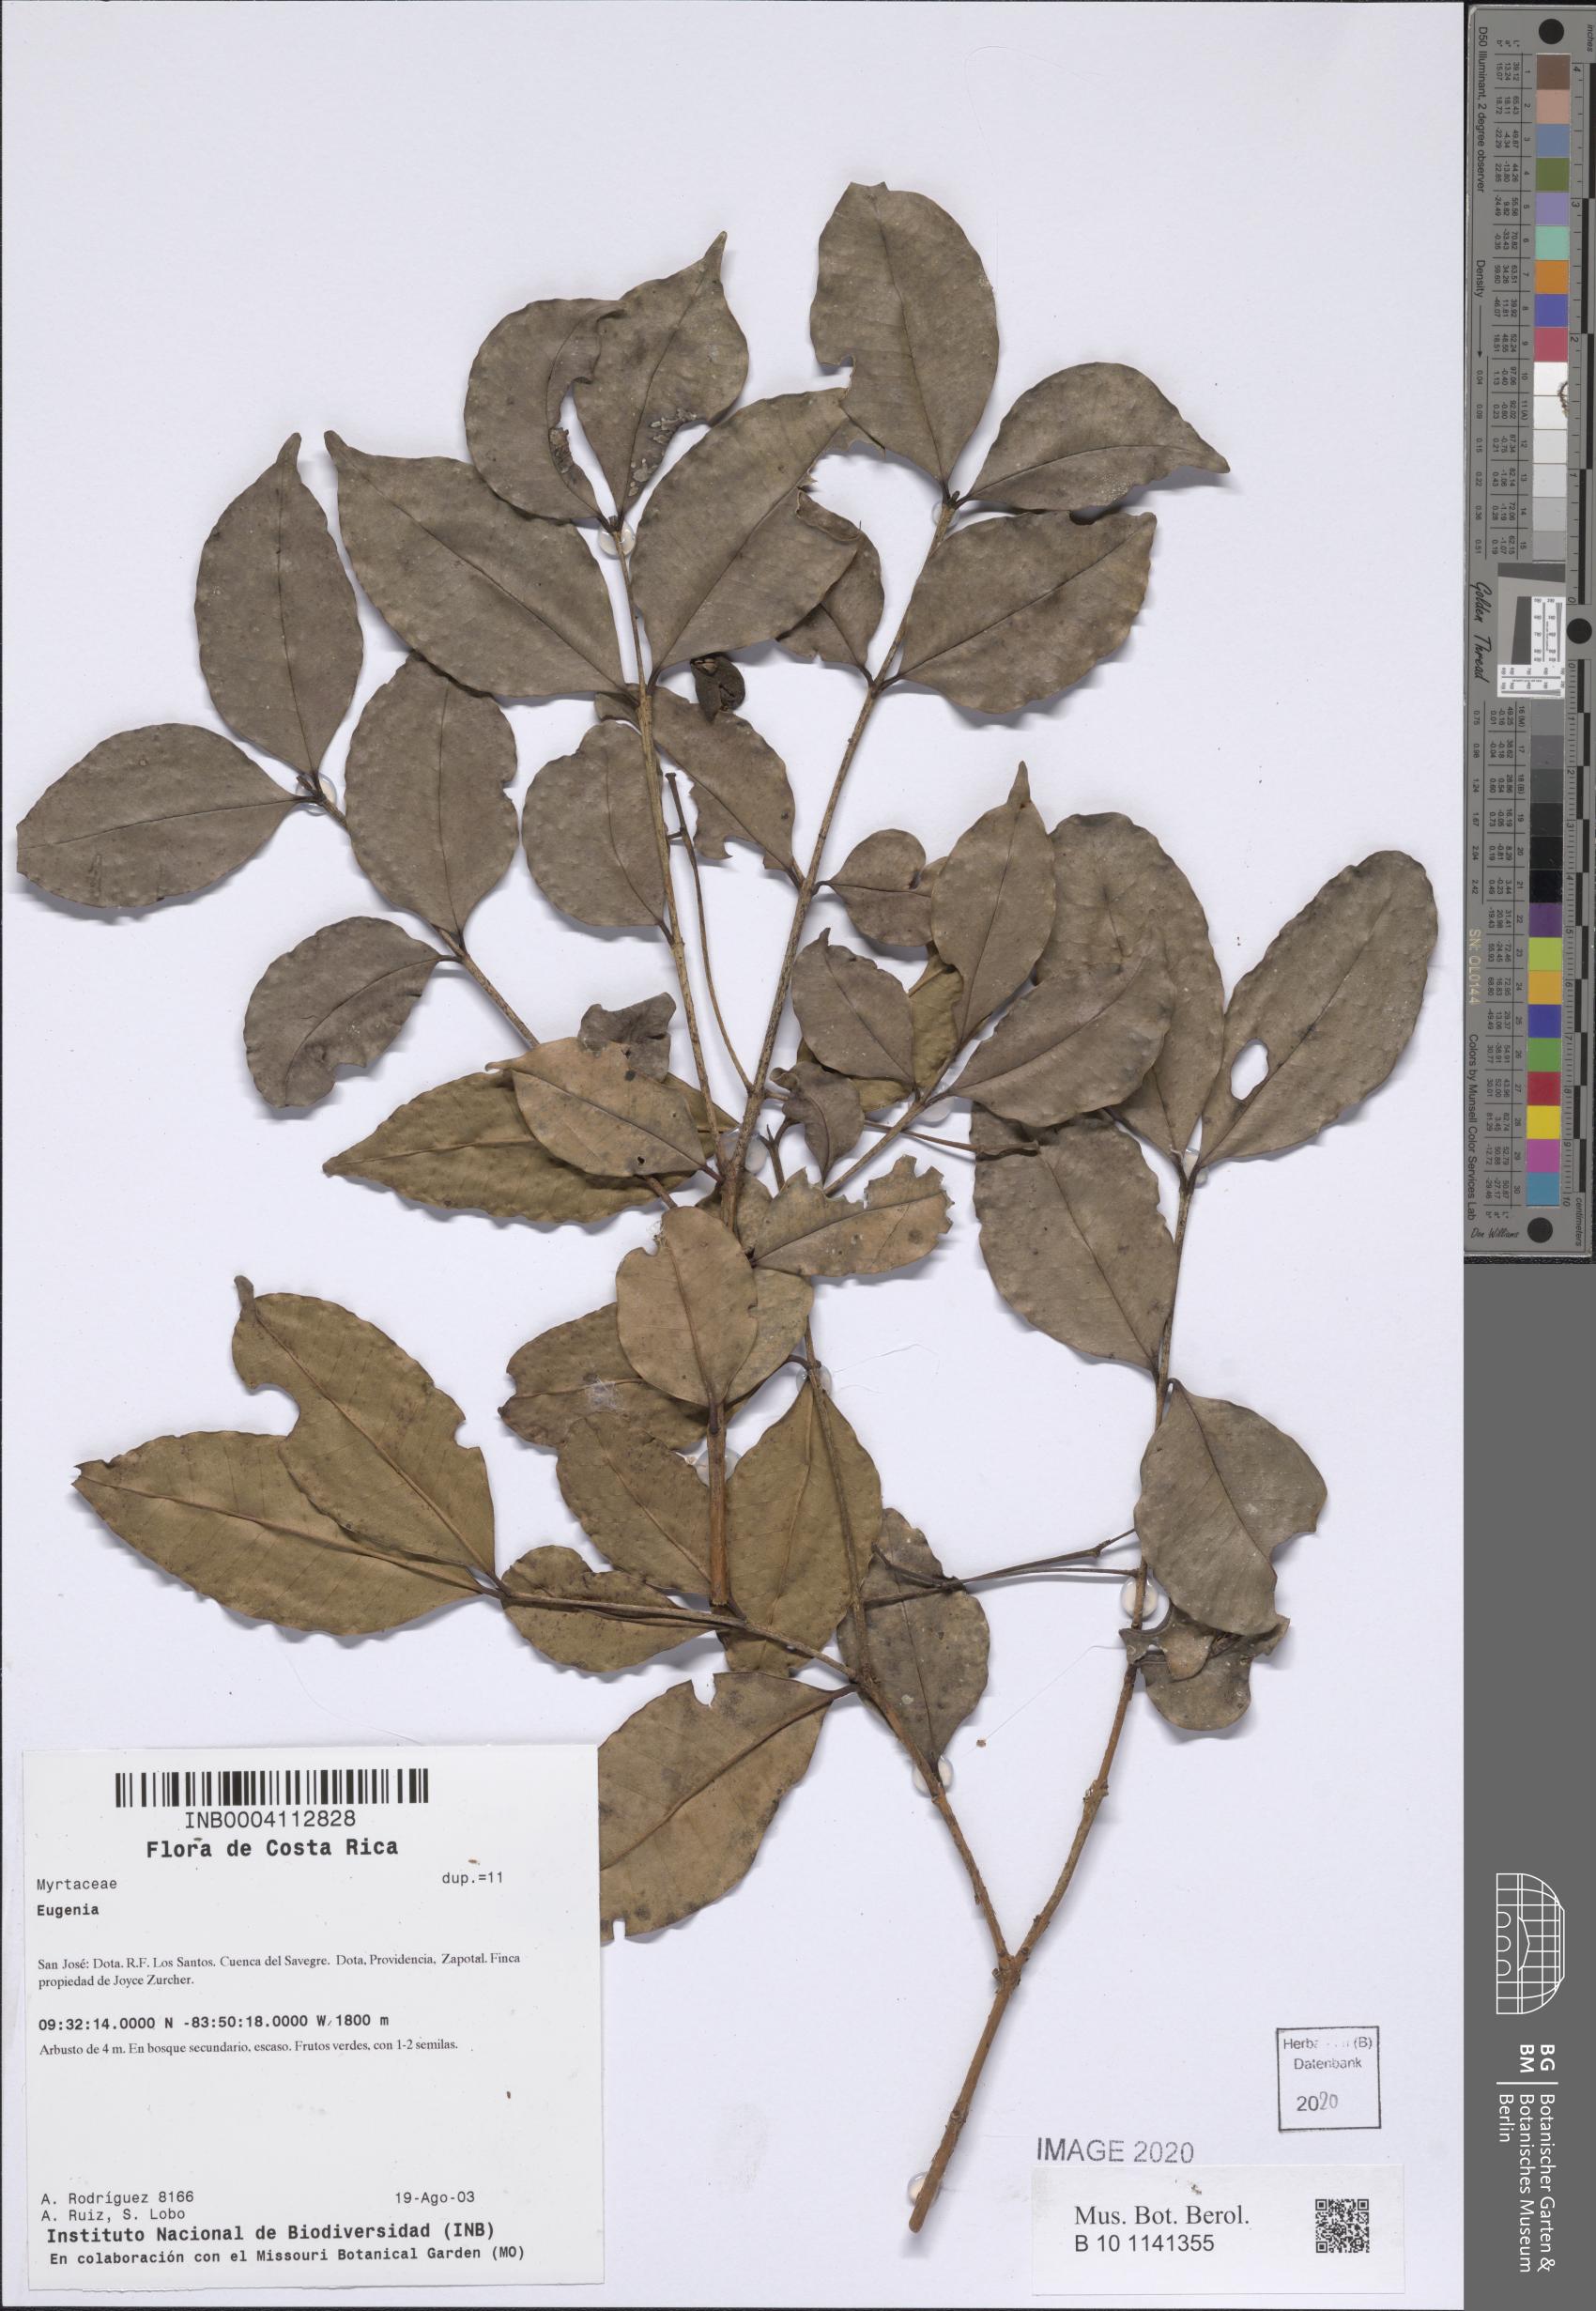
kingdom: Plantae
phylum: Tracheophyta
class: Magnoliopsida
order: Myrtales
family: Myrtaceae
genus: Eugenia
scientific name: Eugenia
